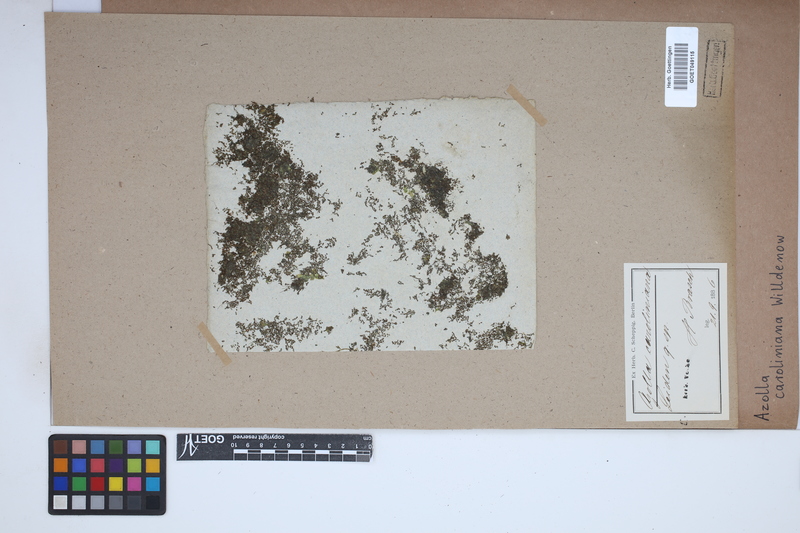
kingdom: Plantae
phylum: Tracheophyta
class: Polypodiopsida
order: Salviniales
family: Salviniaceae
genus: Azolla
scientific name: Azolla caroliniana
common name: Carolina mosquitofern
